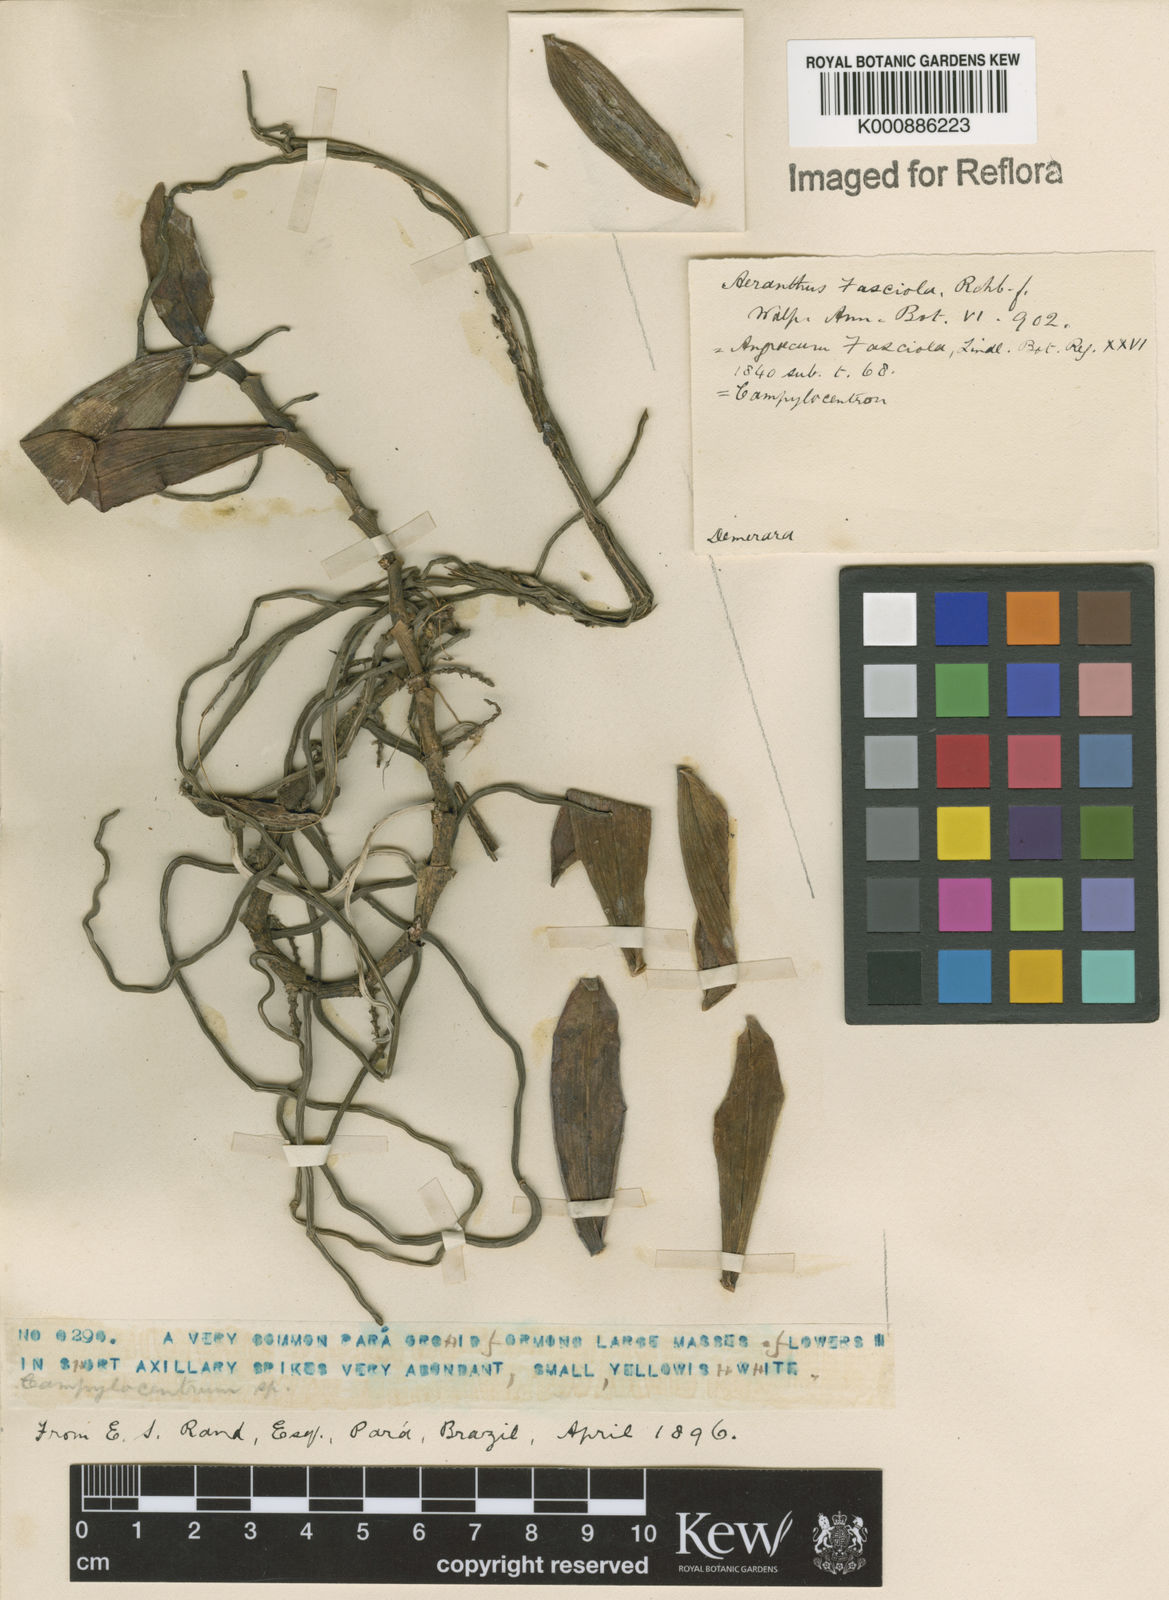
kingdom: Plantae
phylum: Tracheophyta
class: Liliopsida
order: Asparagales
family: Orchidaceae
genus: Campylocentrum
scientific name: Campylocentrum brevifolium
